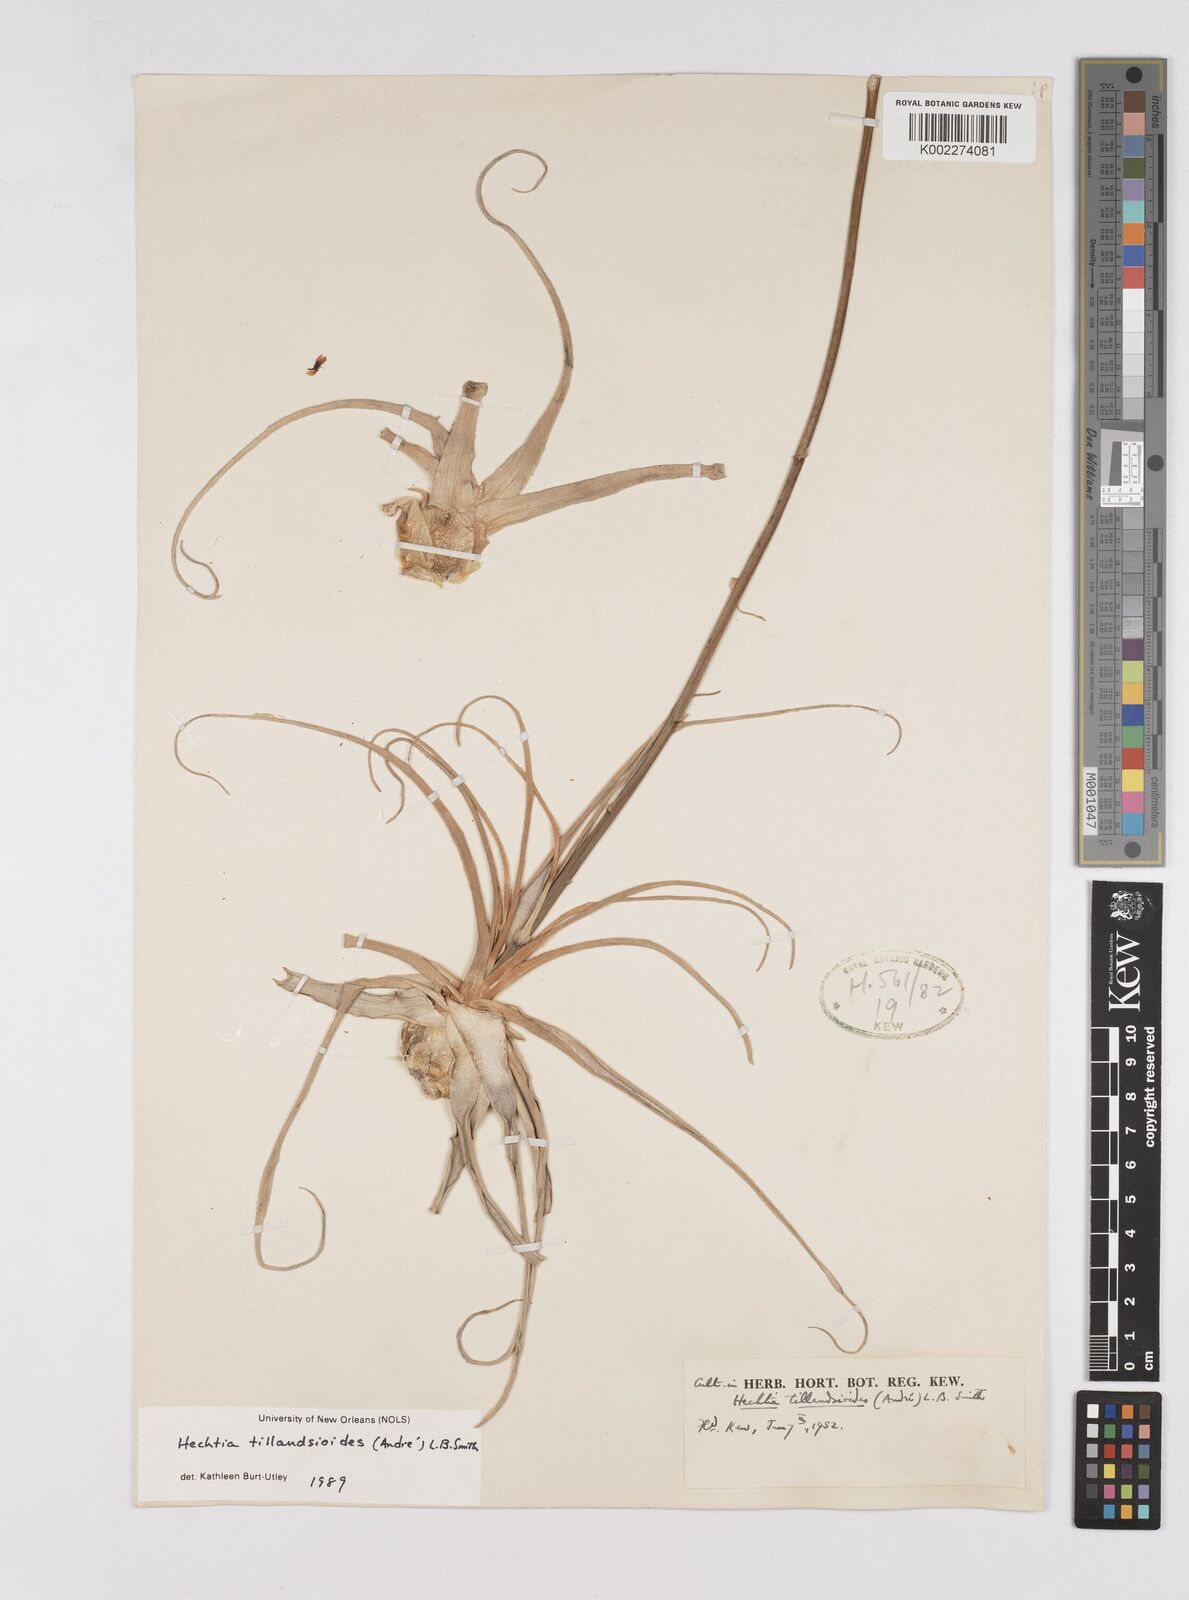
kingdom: Plantae
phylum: Tracheophyta
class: Liliopsida
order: Poales
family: Bromeliaceae
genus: Hechtia
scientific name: Hechtia tillandsioides
